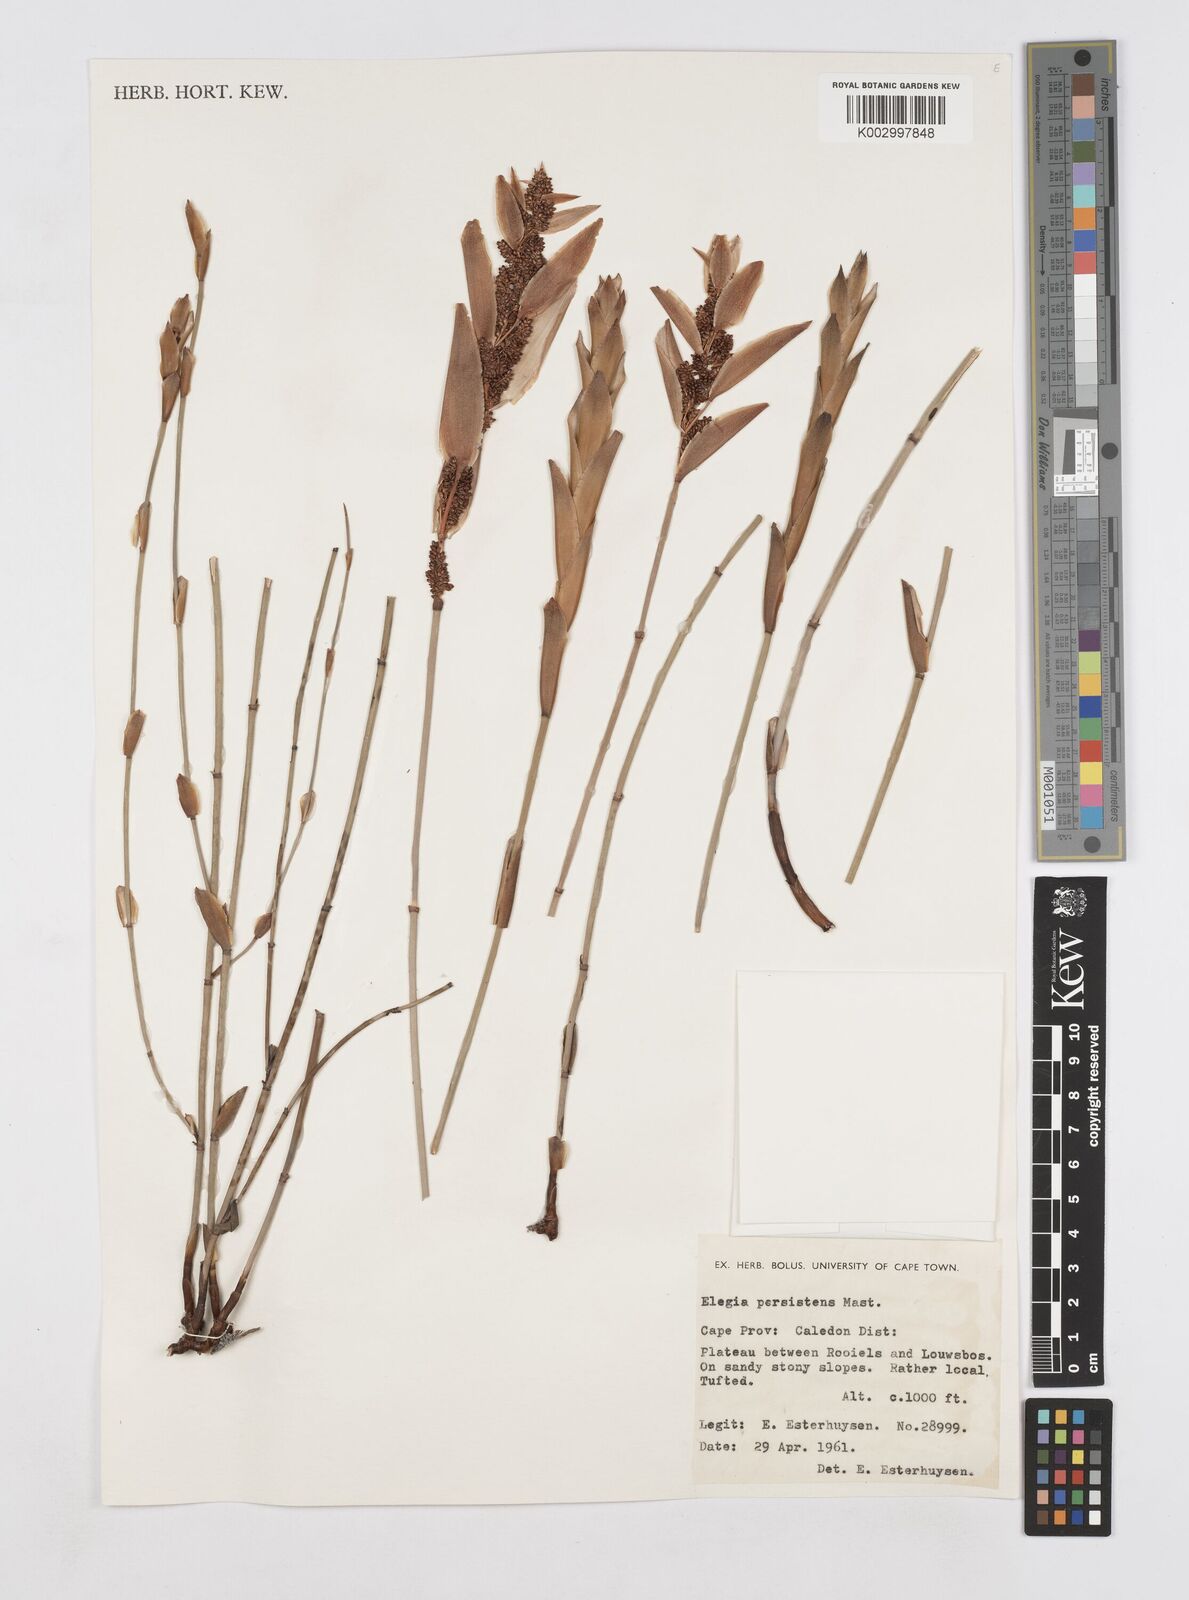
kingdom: Plantae
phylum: Tracheophyta
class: Liliopsida
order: Poales
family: Restionaceae
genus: Elegia
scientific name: Elegia persistens
